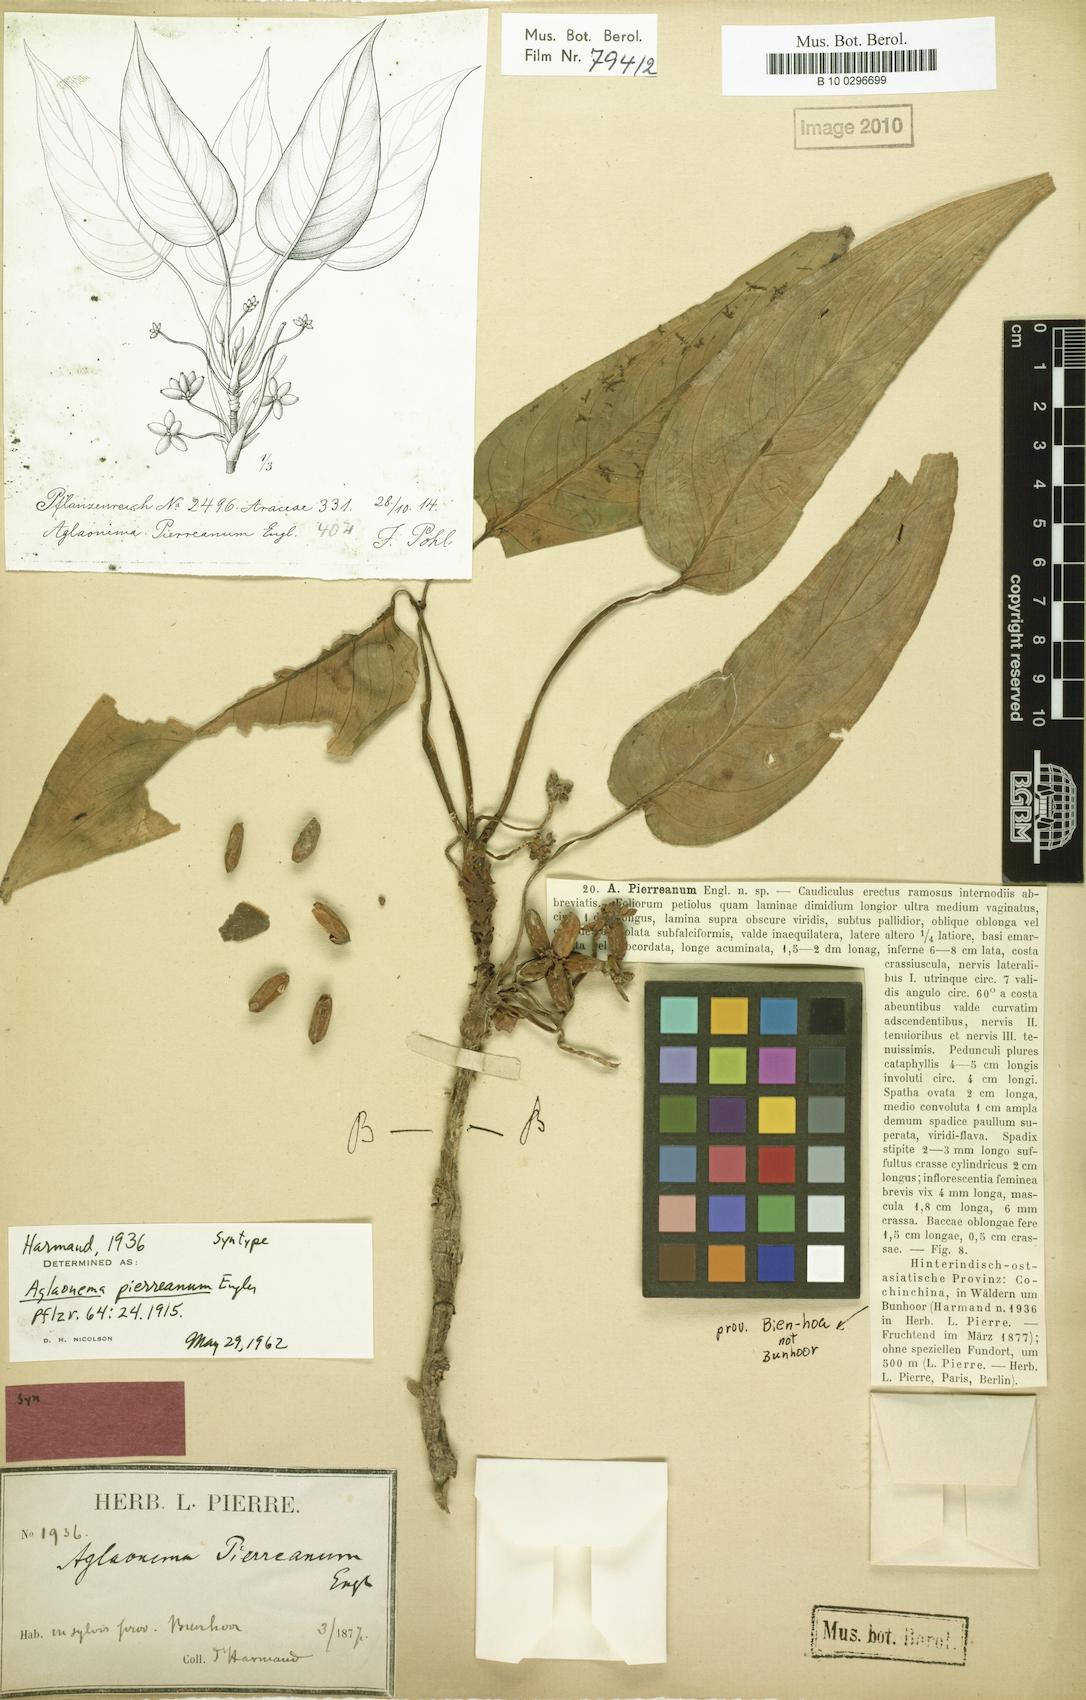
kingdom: Plantae
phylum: Tracheophyta
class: Liliopsida
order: Alismatales
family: Araceae
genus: Aglaonema
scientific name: Aglaonema simplex
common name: Malayan-sword
